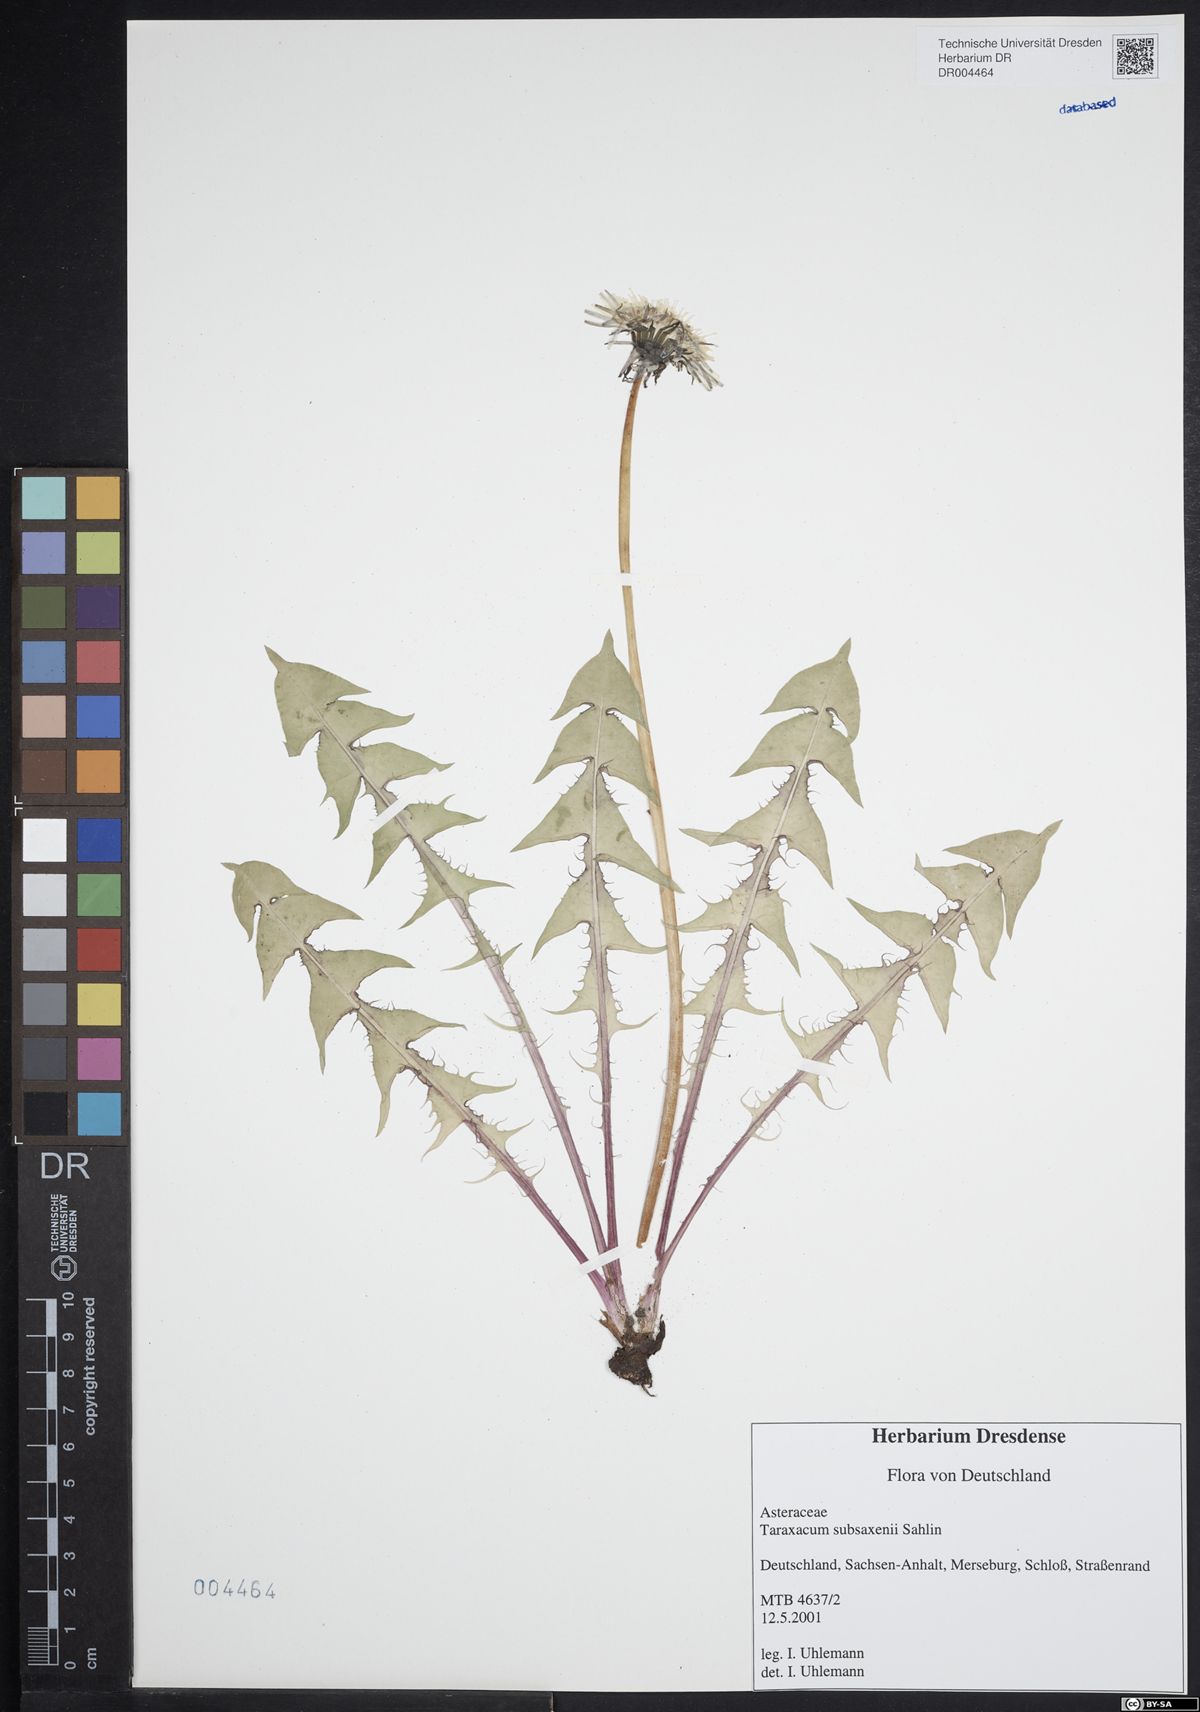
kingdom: Plantae
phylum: Tracheophyta
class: Magnoliopsida
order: Asterales
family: Asteraceae
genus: Taraxacum
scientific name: Taraxacum subsaxenii
